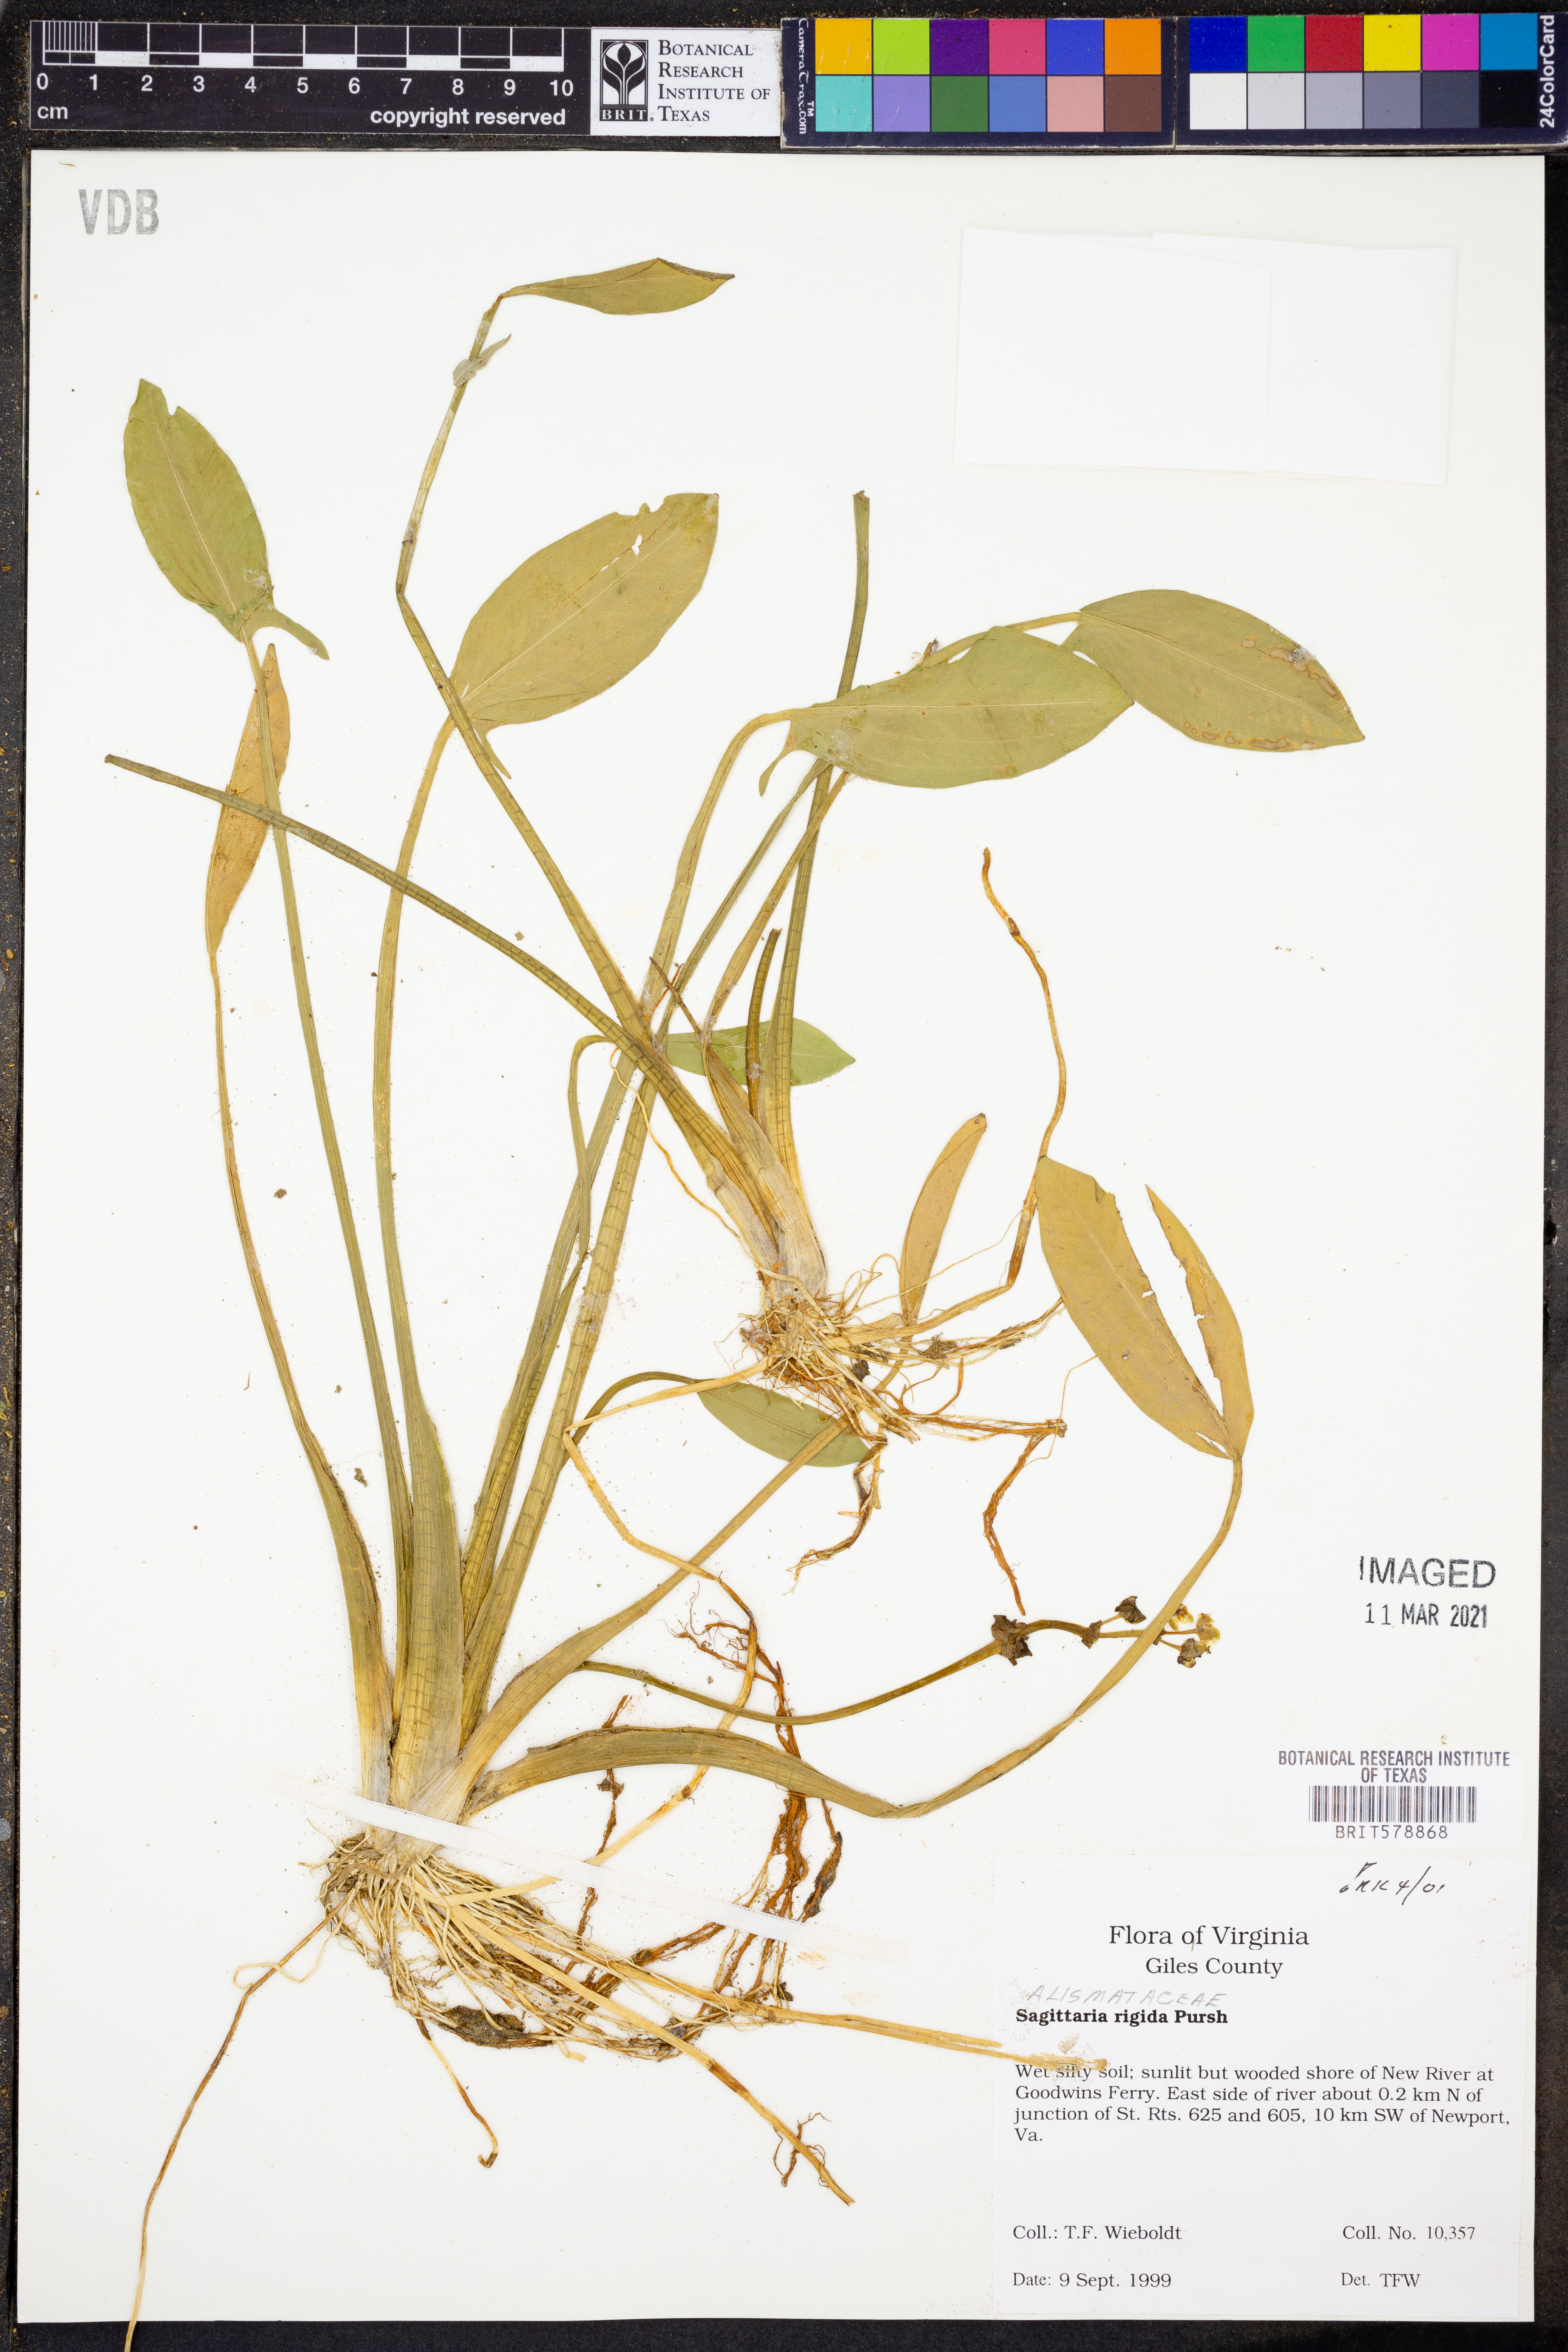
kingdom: Plantae
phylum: Tracheophyta
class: Liliopsida
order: Alismatales
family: Alismataceae
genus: Sagittaria
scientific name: Sagittaria rigida
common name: Canadian arrowhead
